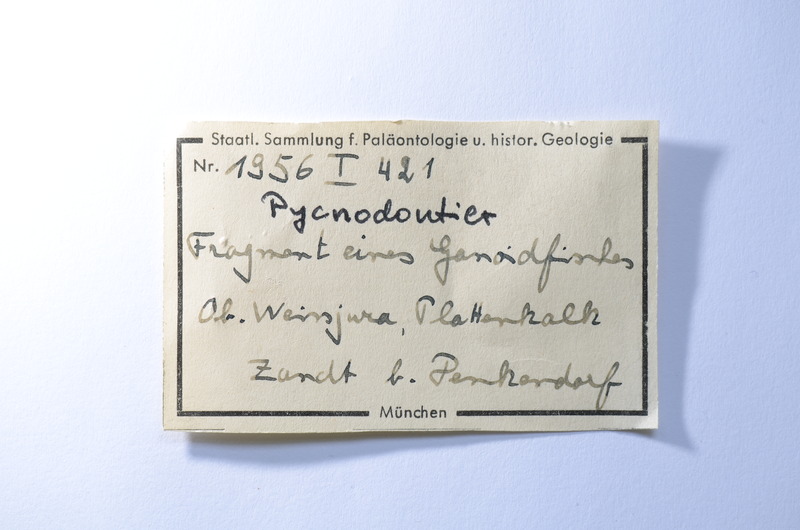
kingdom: Animalia
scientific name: Animalia
